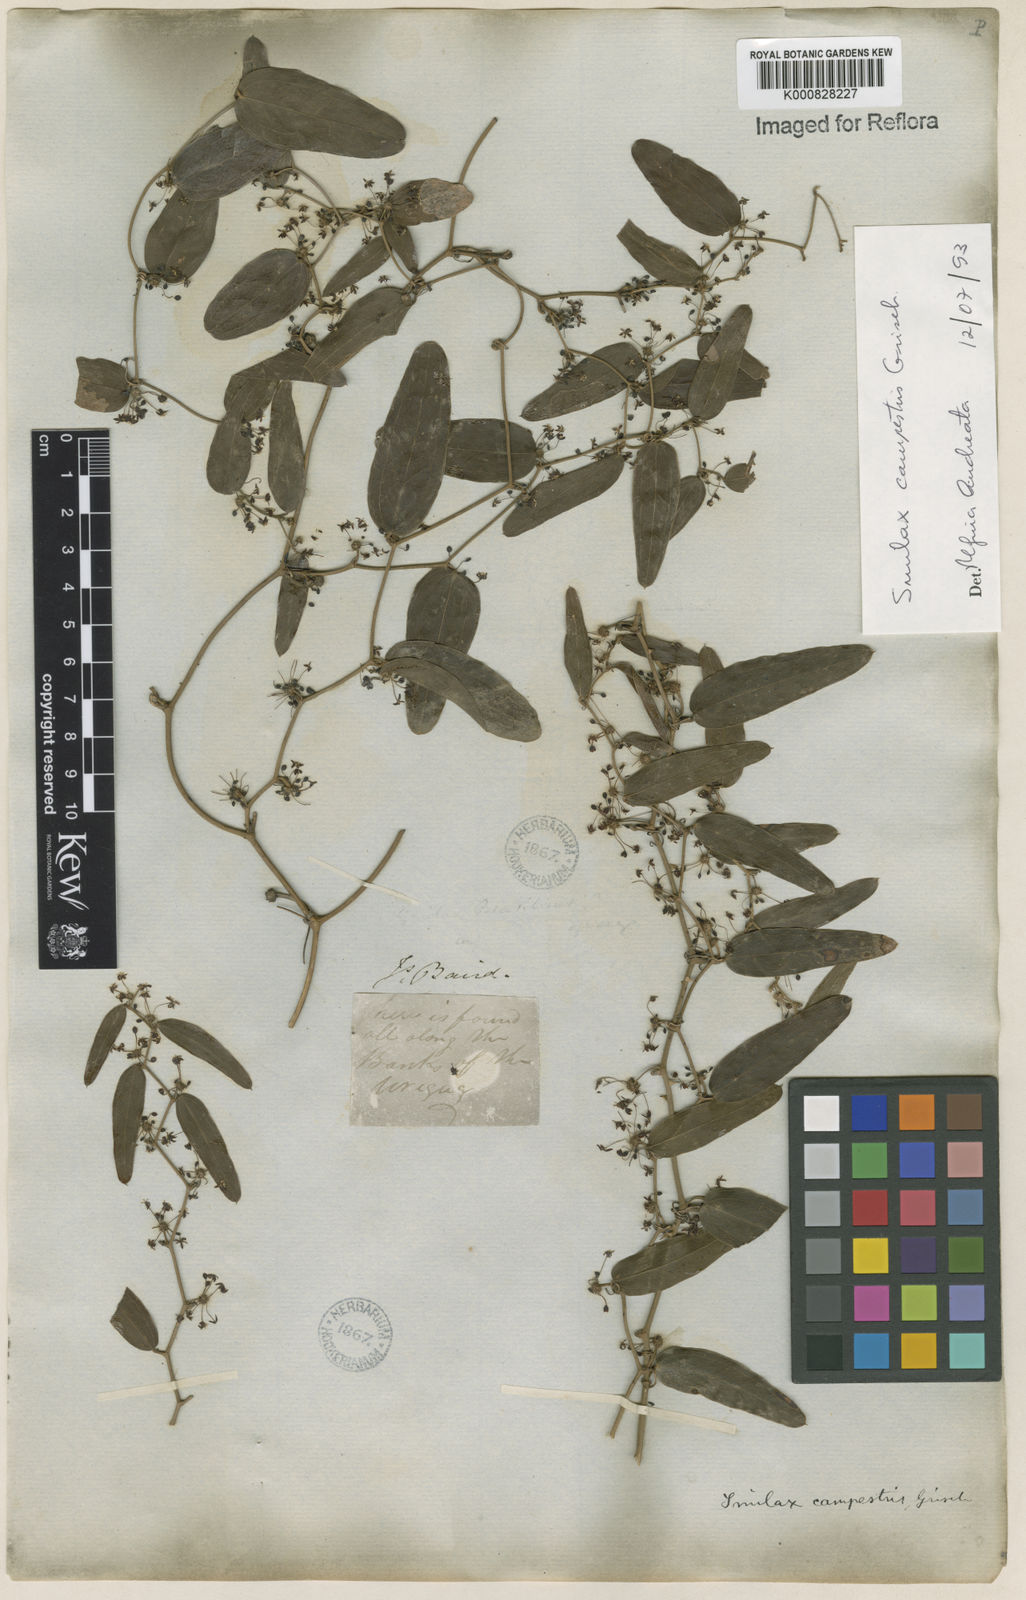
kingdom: Plantae
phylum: Tracheophyta
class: Liliopsida
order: Liliales
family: Smilacaceae
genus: Smilax
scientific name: Smilax campestris
